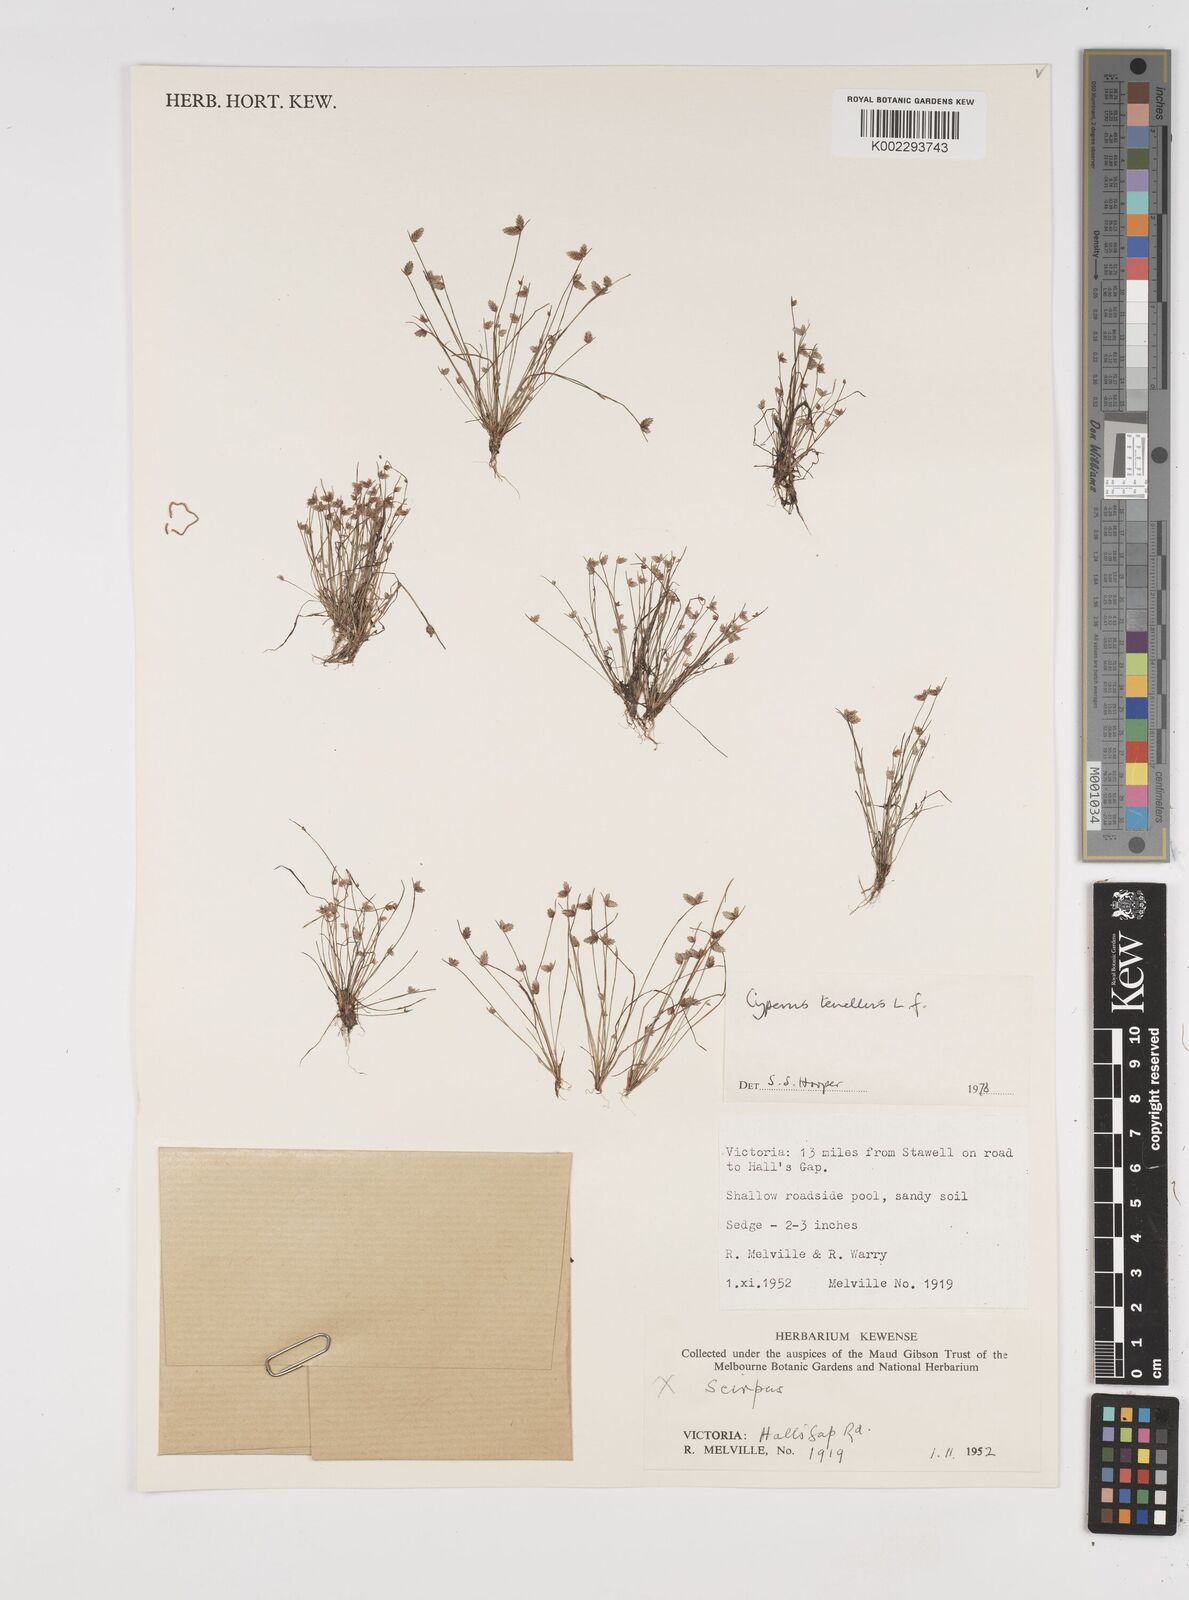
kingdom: Plantae
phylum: Tracheophyta
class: Liliopsida
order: Poales
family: Cyperaceae
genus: Isolepis
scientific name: Isolepis levynsiana
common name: Sedge
